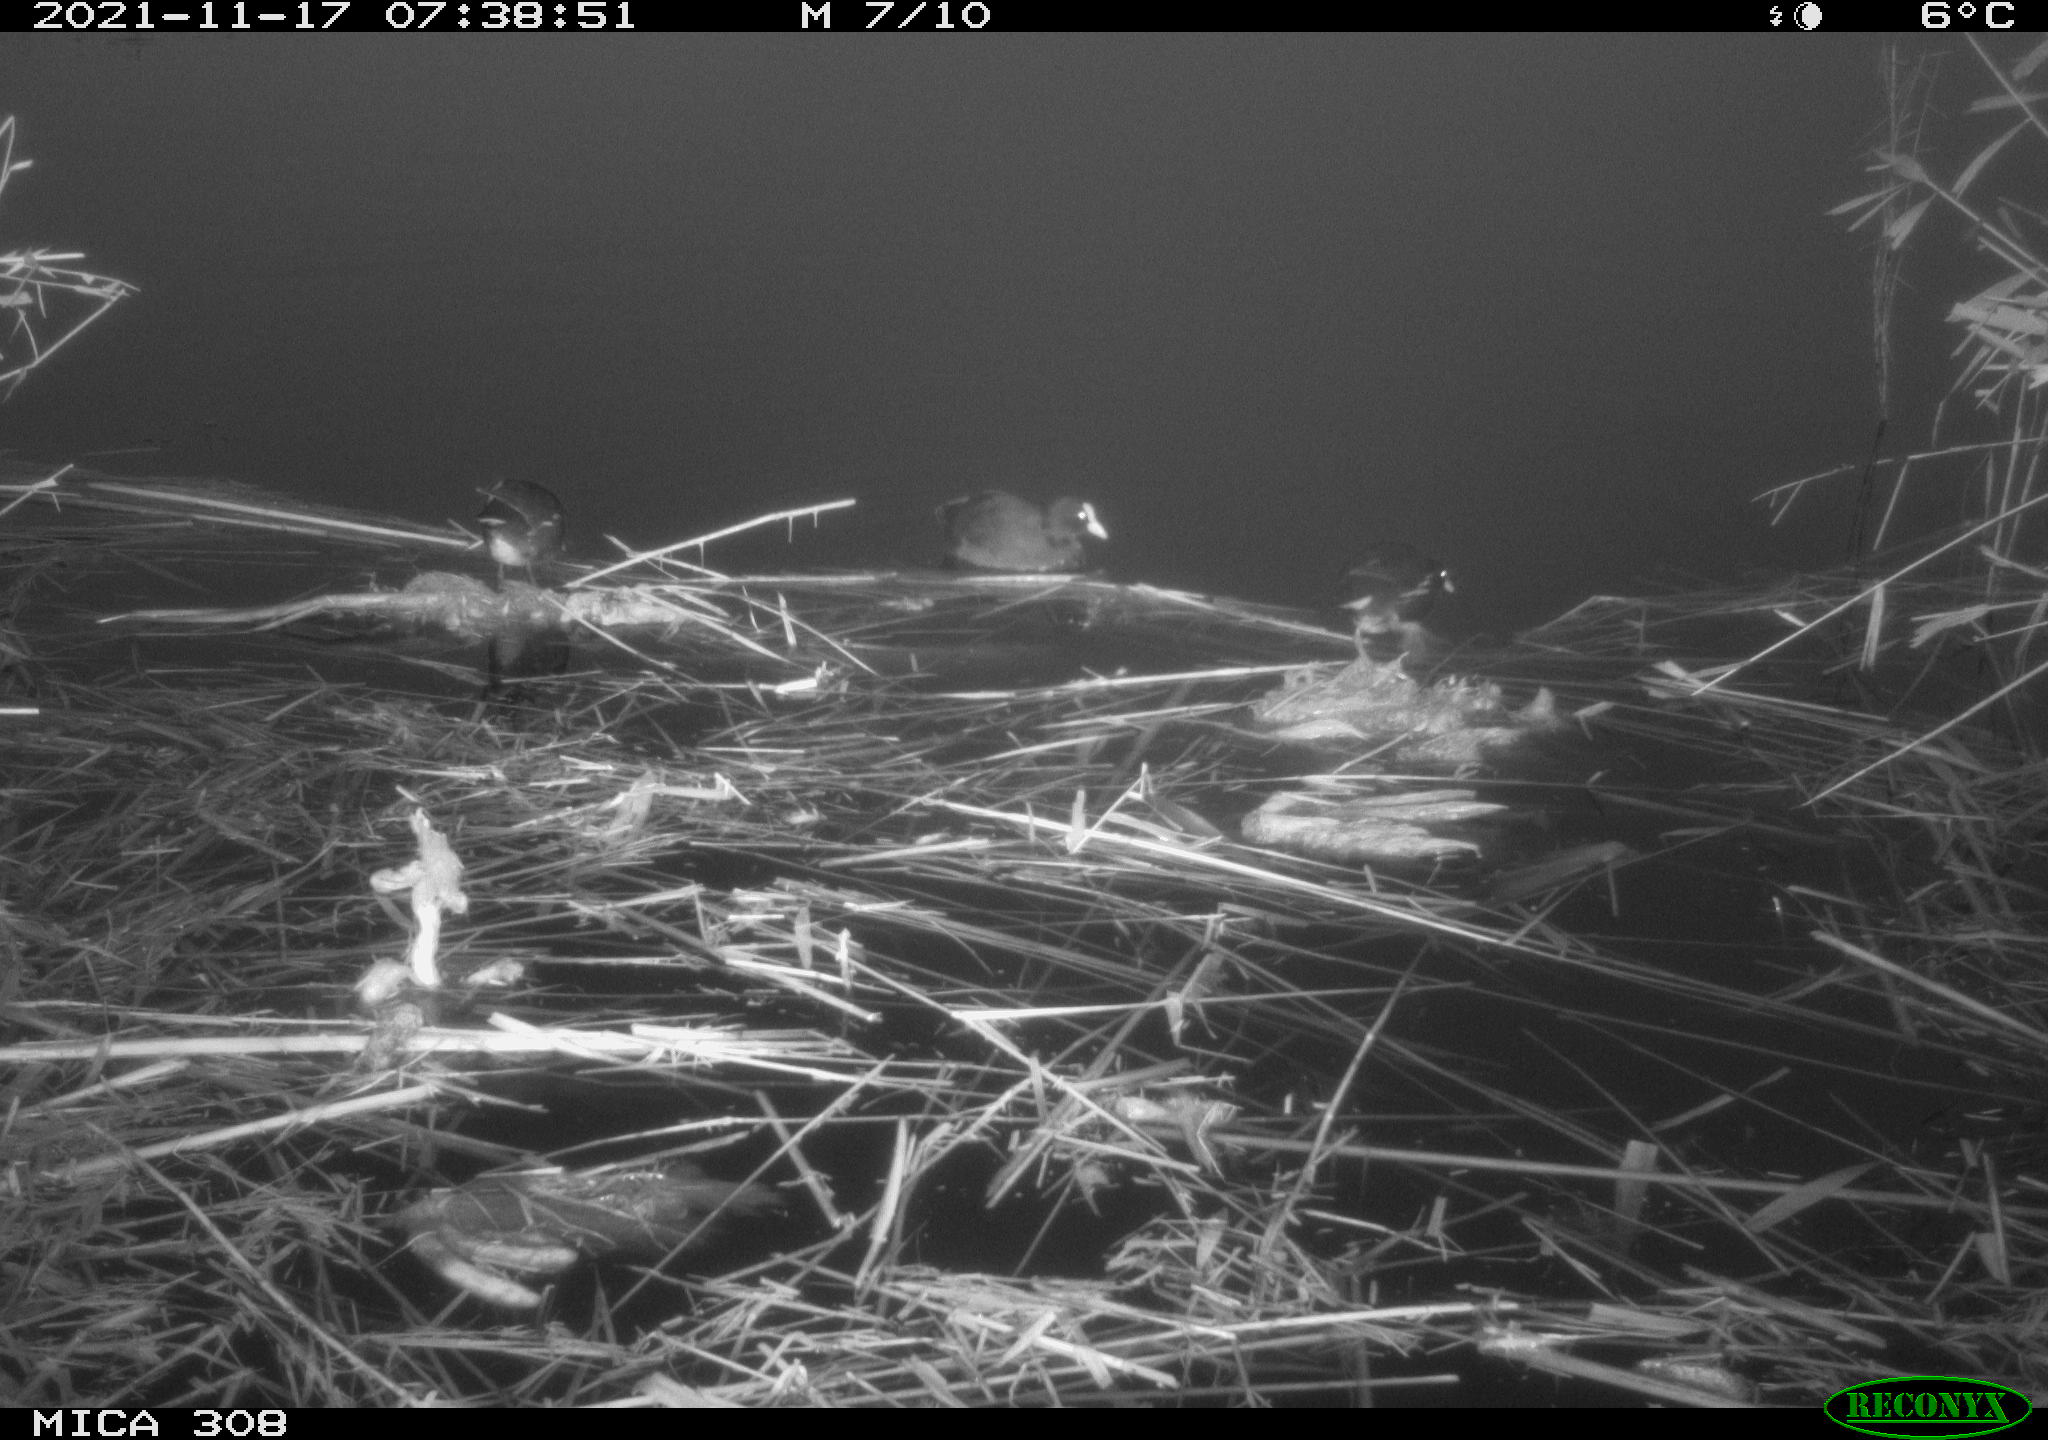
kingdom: Animalia
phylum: Chordata
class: Aves
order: Gruiformes
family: Rallidae
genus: Fulica
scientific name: Fulica atra
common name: Eurasian coot
